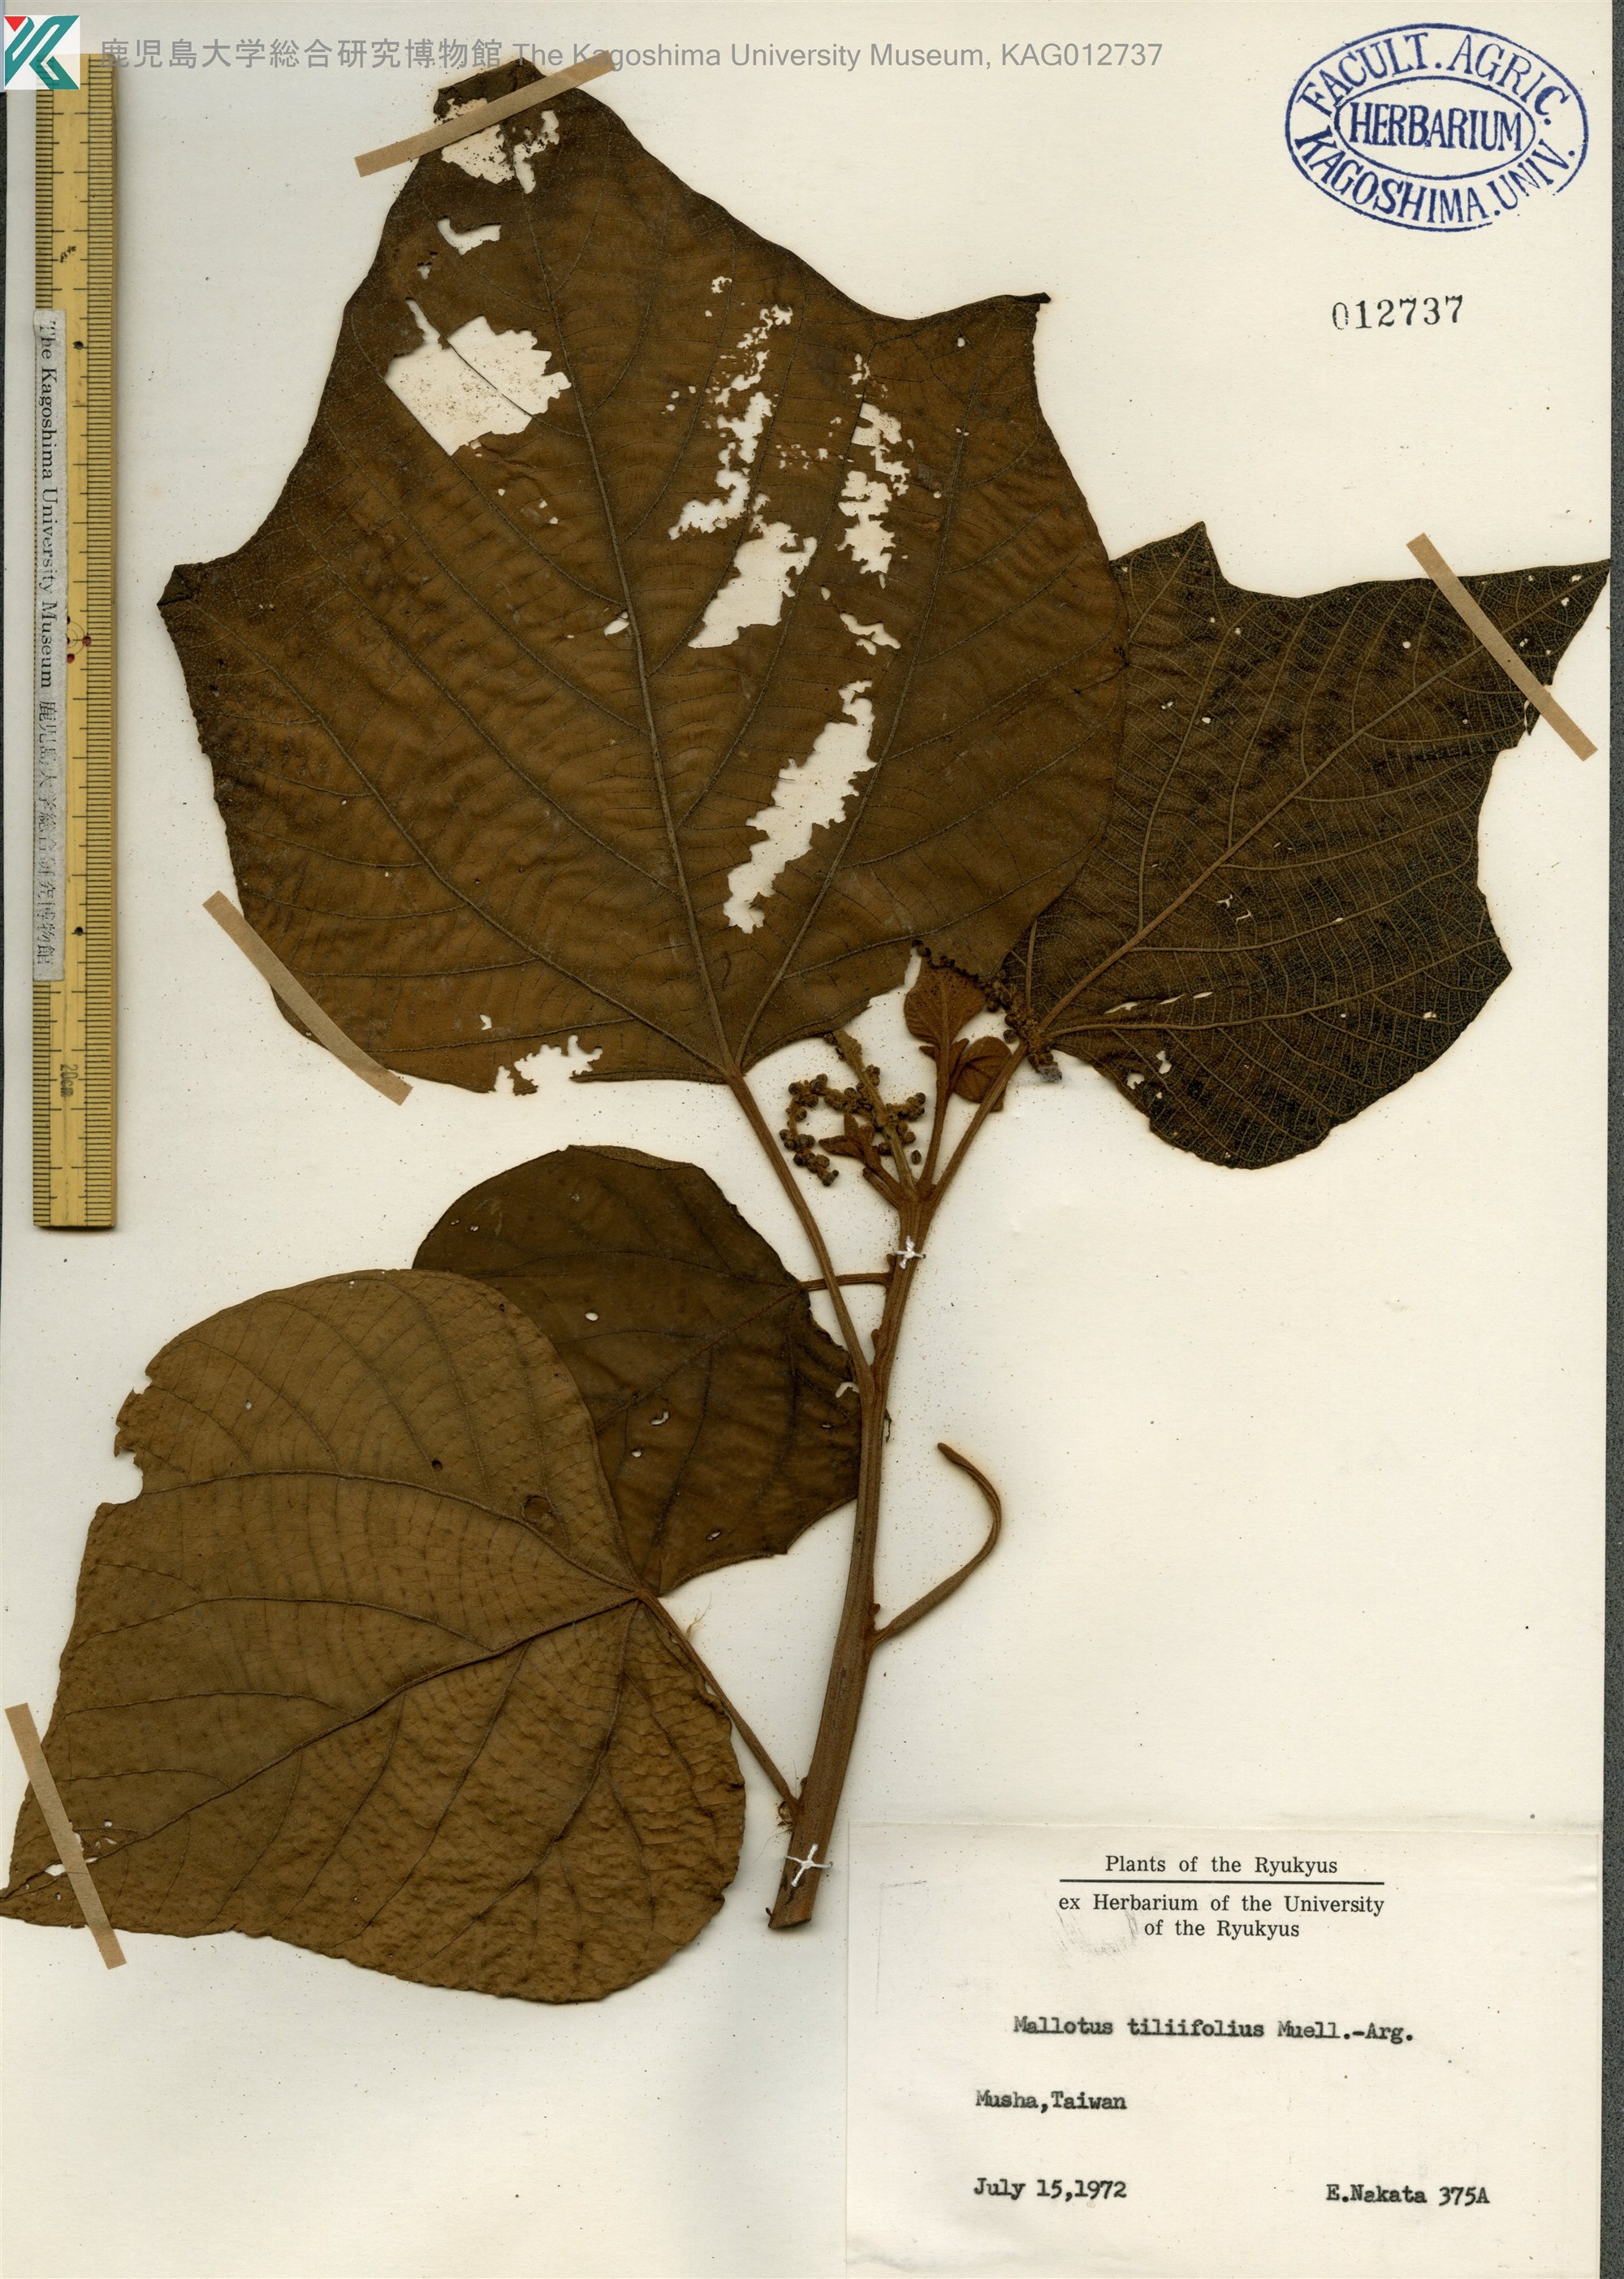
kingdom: Plantae
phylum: Tracheophyta
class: Magnoliopsida
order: Malpighiales
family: Euphorbiaceae
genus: Mallotus
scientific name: Mallotus tiliifolius
